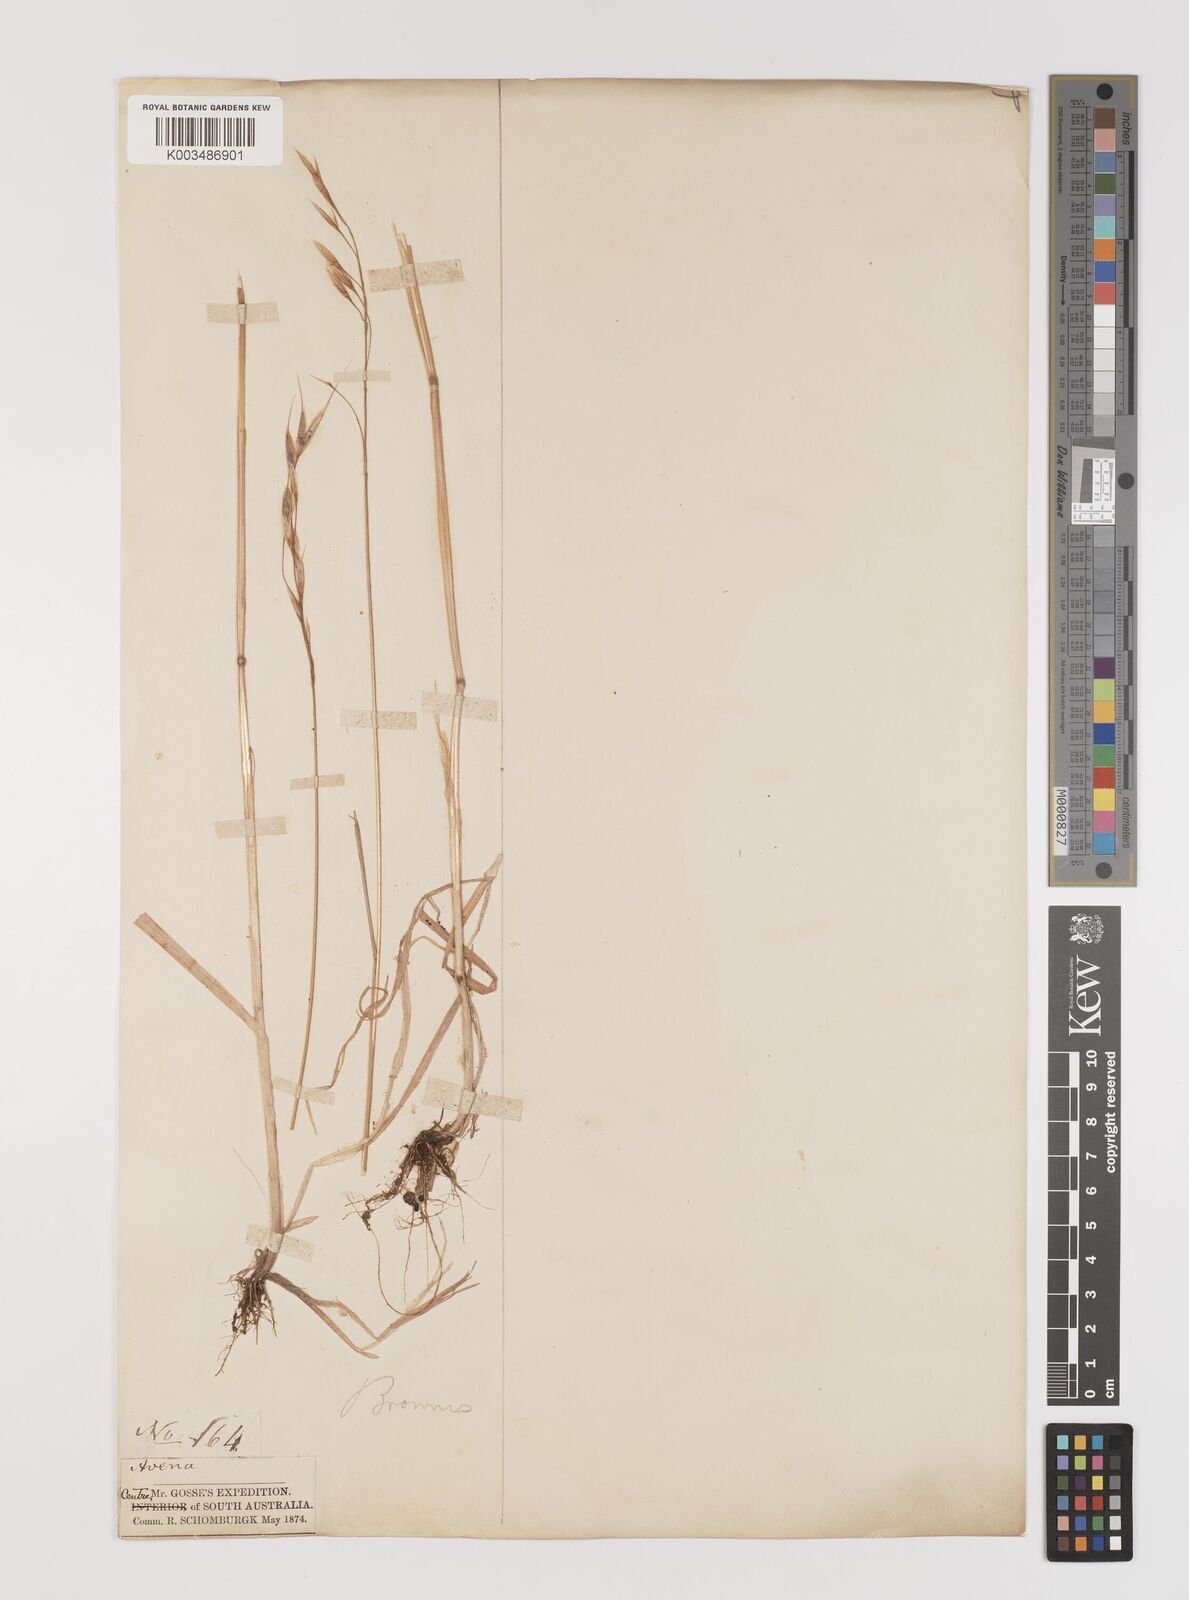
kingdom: Plantae
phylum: Tracheophyta
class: Liliopsida
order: Poales
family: Poaceae
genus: Bromus
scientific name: Bromus arenarius
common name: Australian brome
